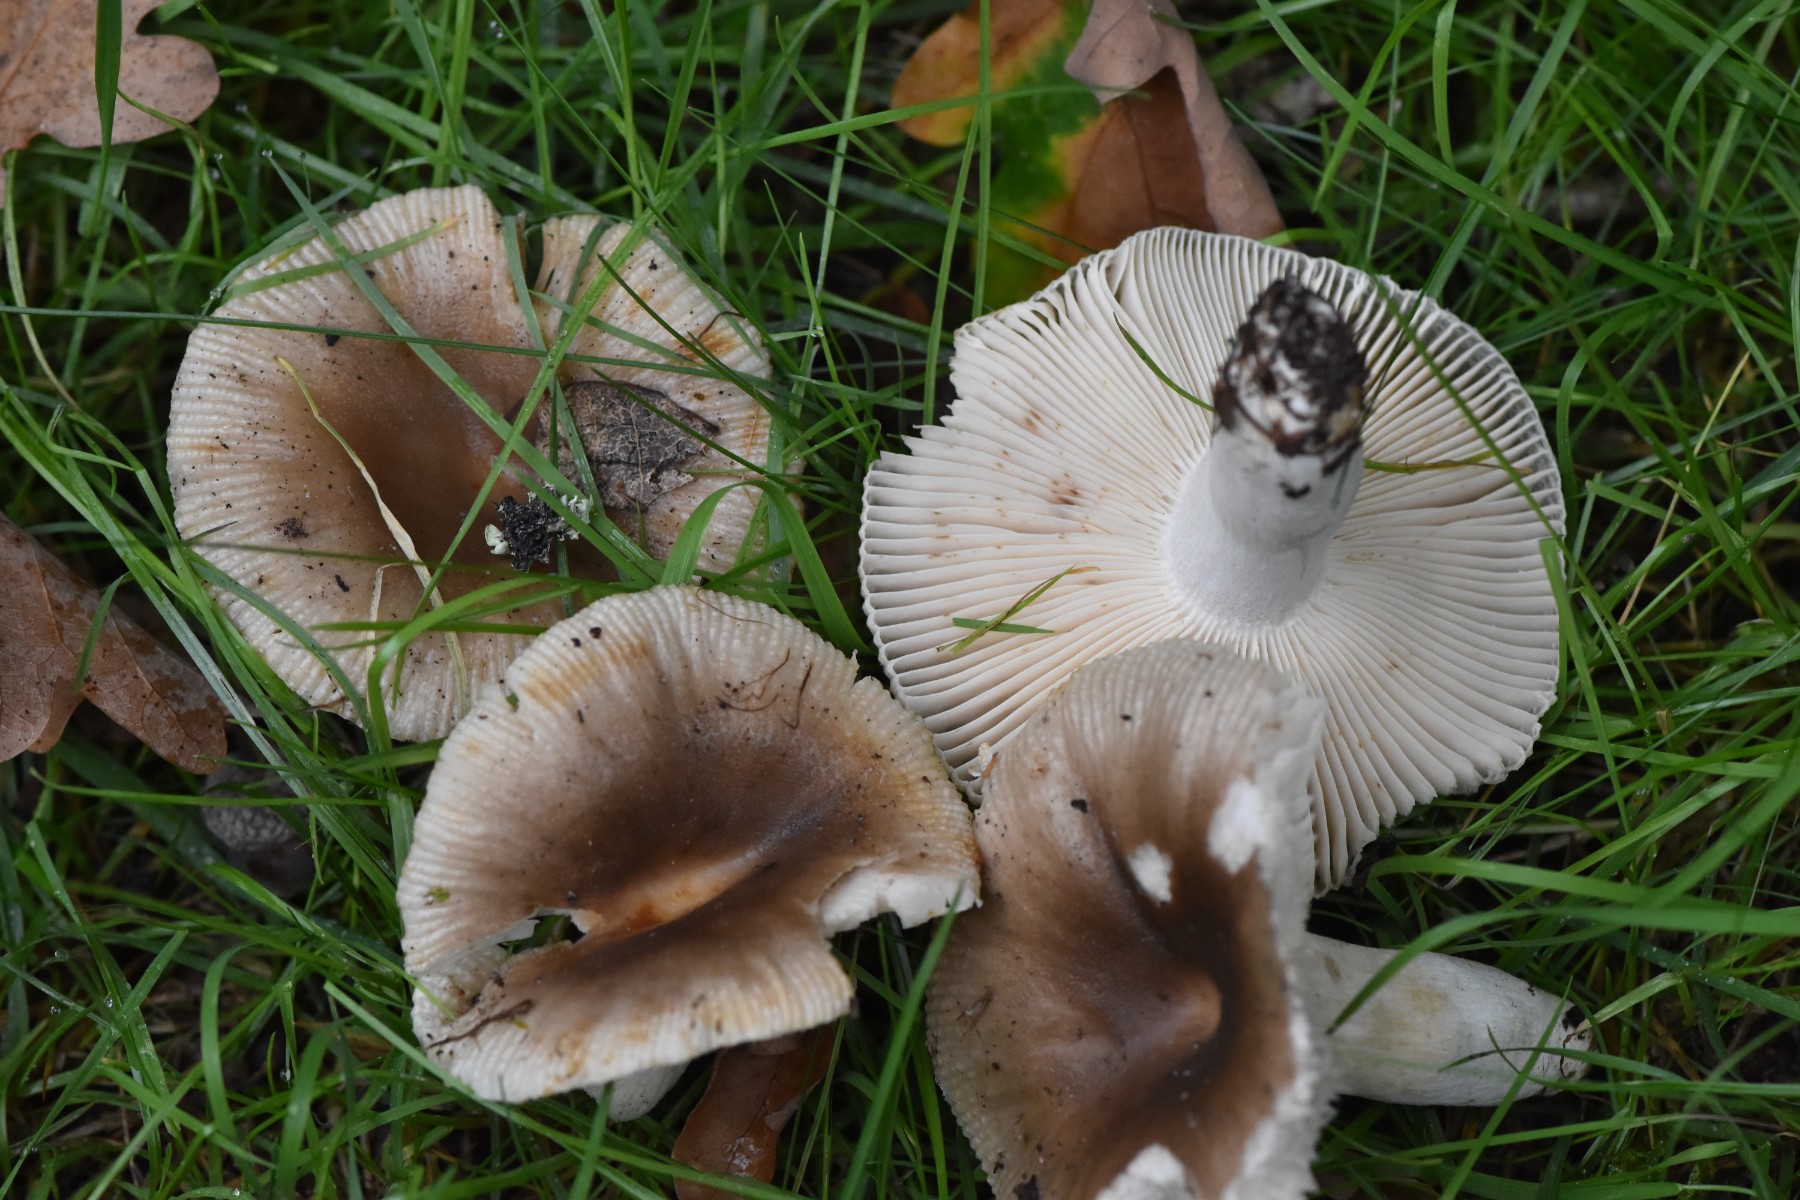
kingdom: Fungi
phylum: Basidiomycota
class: Agaricomycetes
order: Russulales
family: Russulaceae
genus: Russula
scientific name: Russula recondita
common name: mild kam-skørhat
